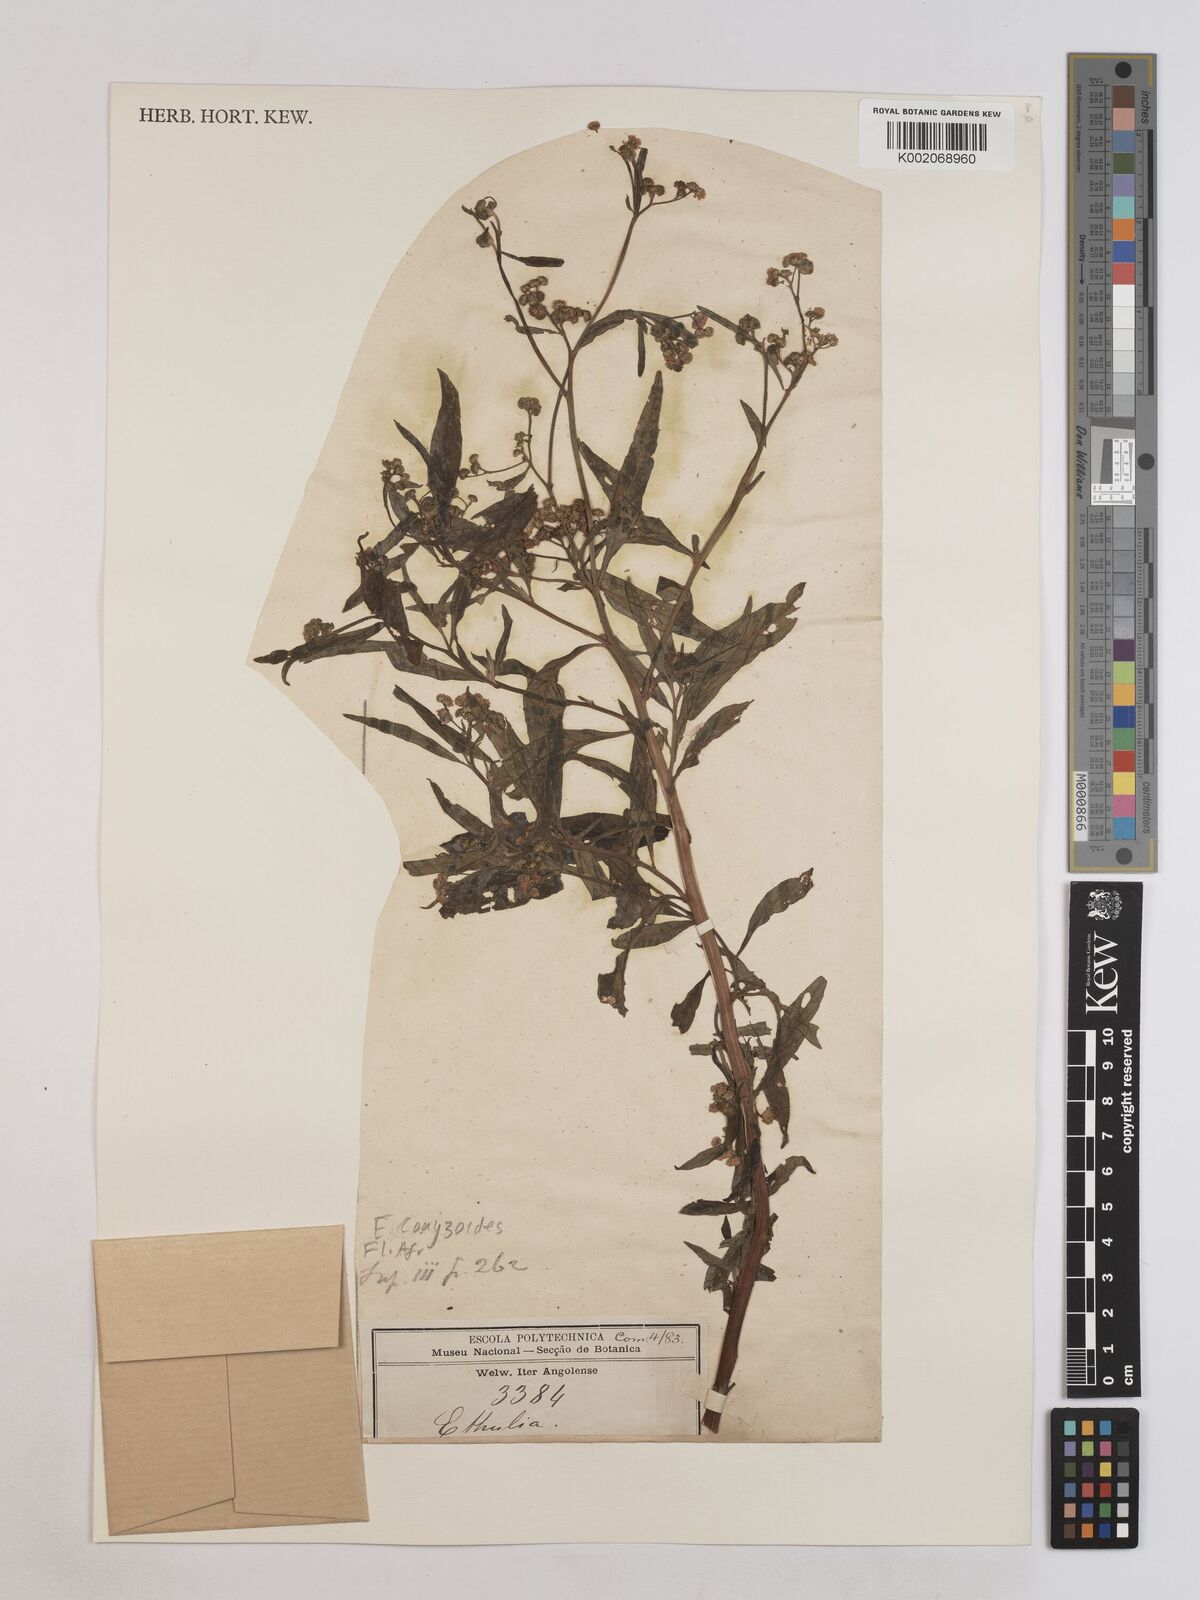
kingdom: Plantae
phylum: Tracheophyta
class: Magnoliopsida
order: Asterales
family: Asteraceae
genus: Ethulia
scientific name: Ethulia conyzoides
